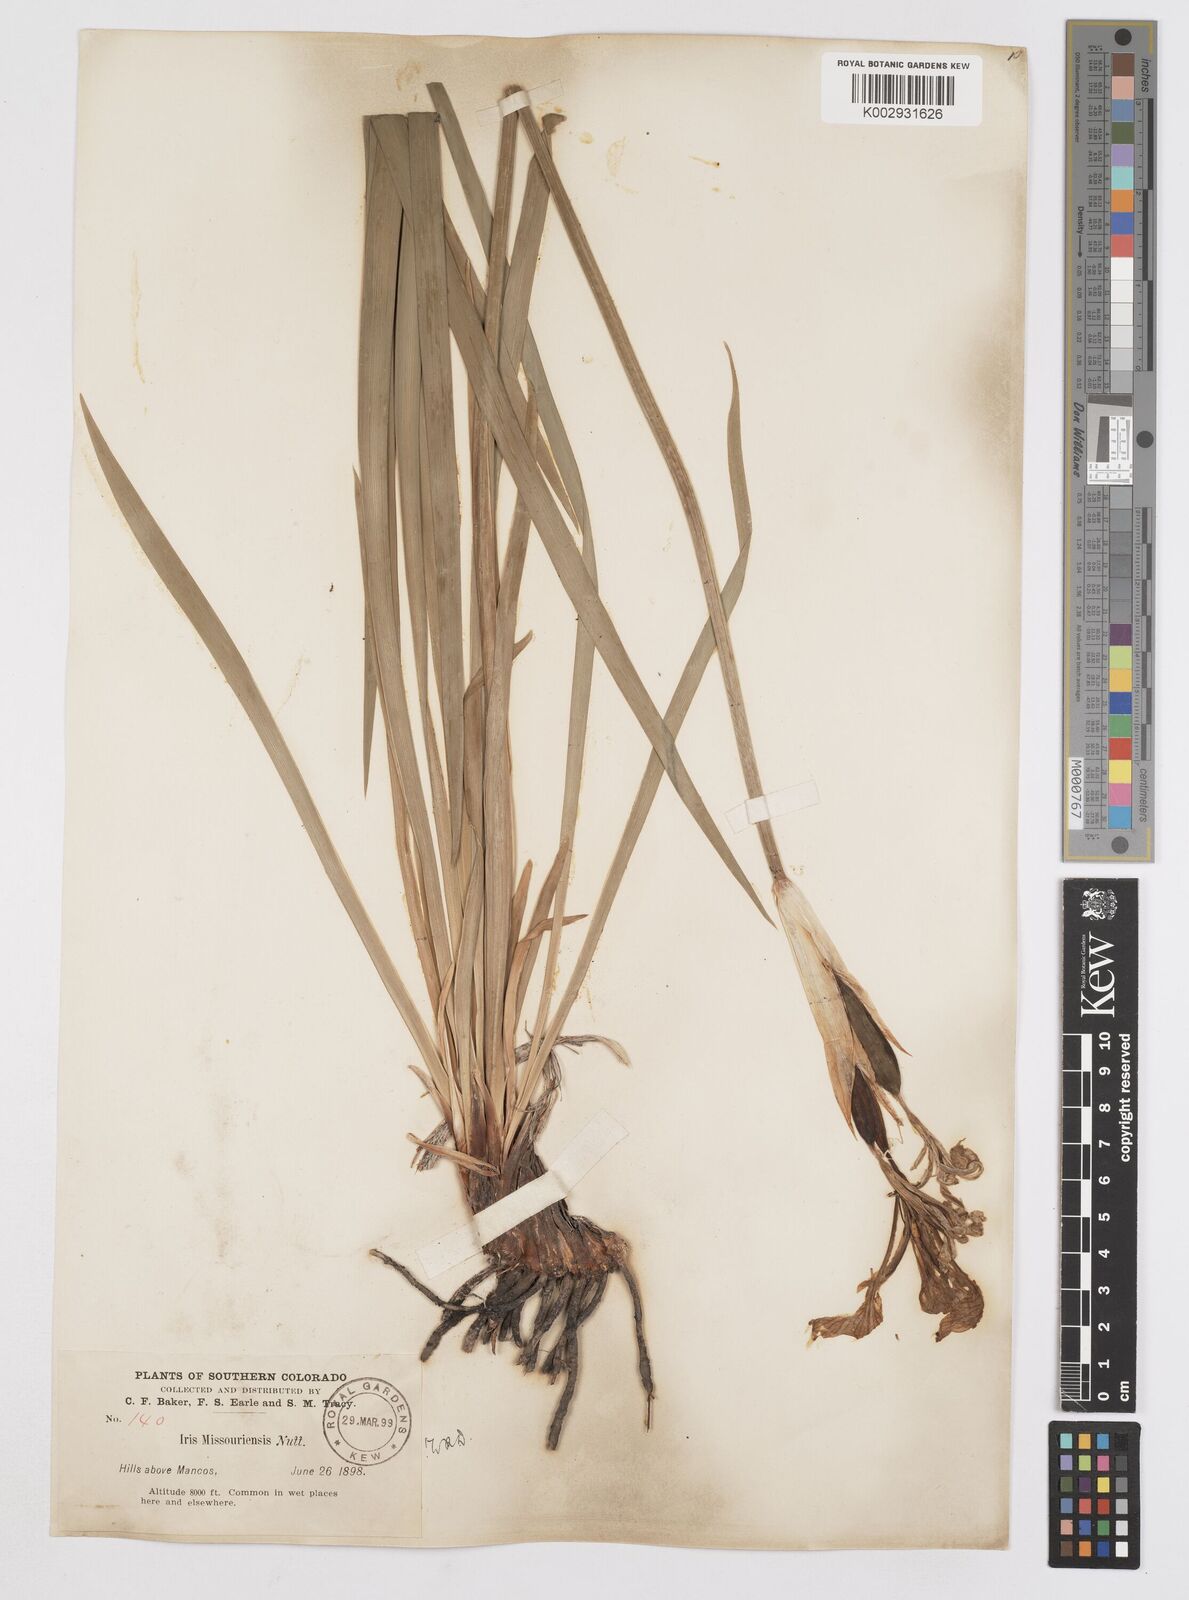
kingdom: Plantae
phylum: Tracheophyta
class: Liliopsida
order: Asparagales
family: Iridaceae
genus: Iris
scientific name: Iris missouriensis
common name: Rocky mountain iris
